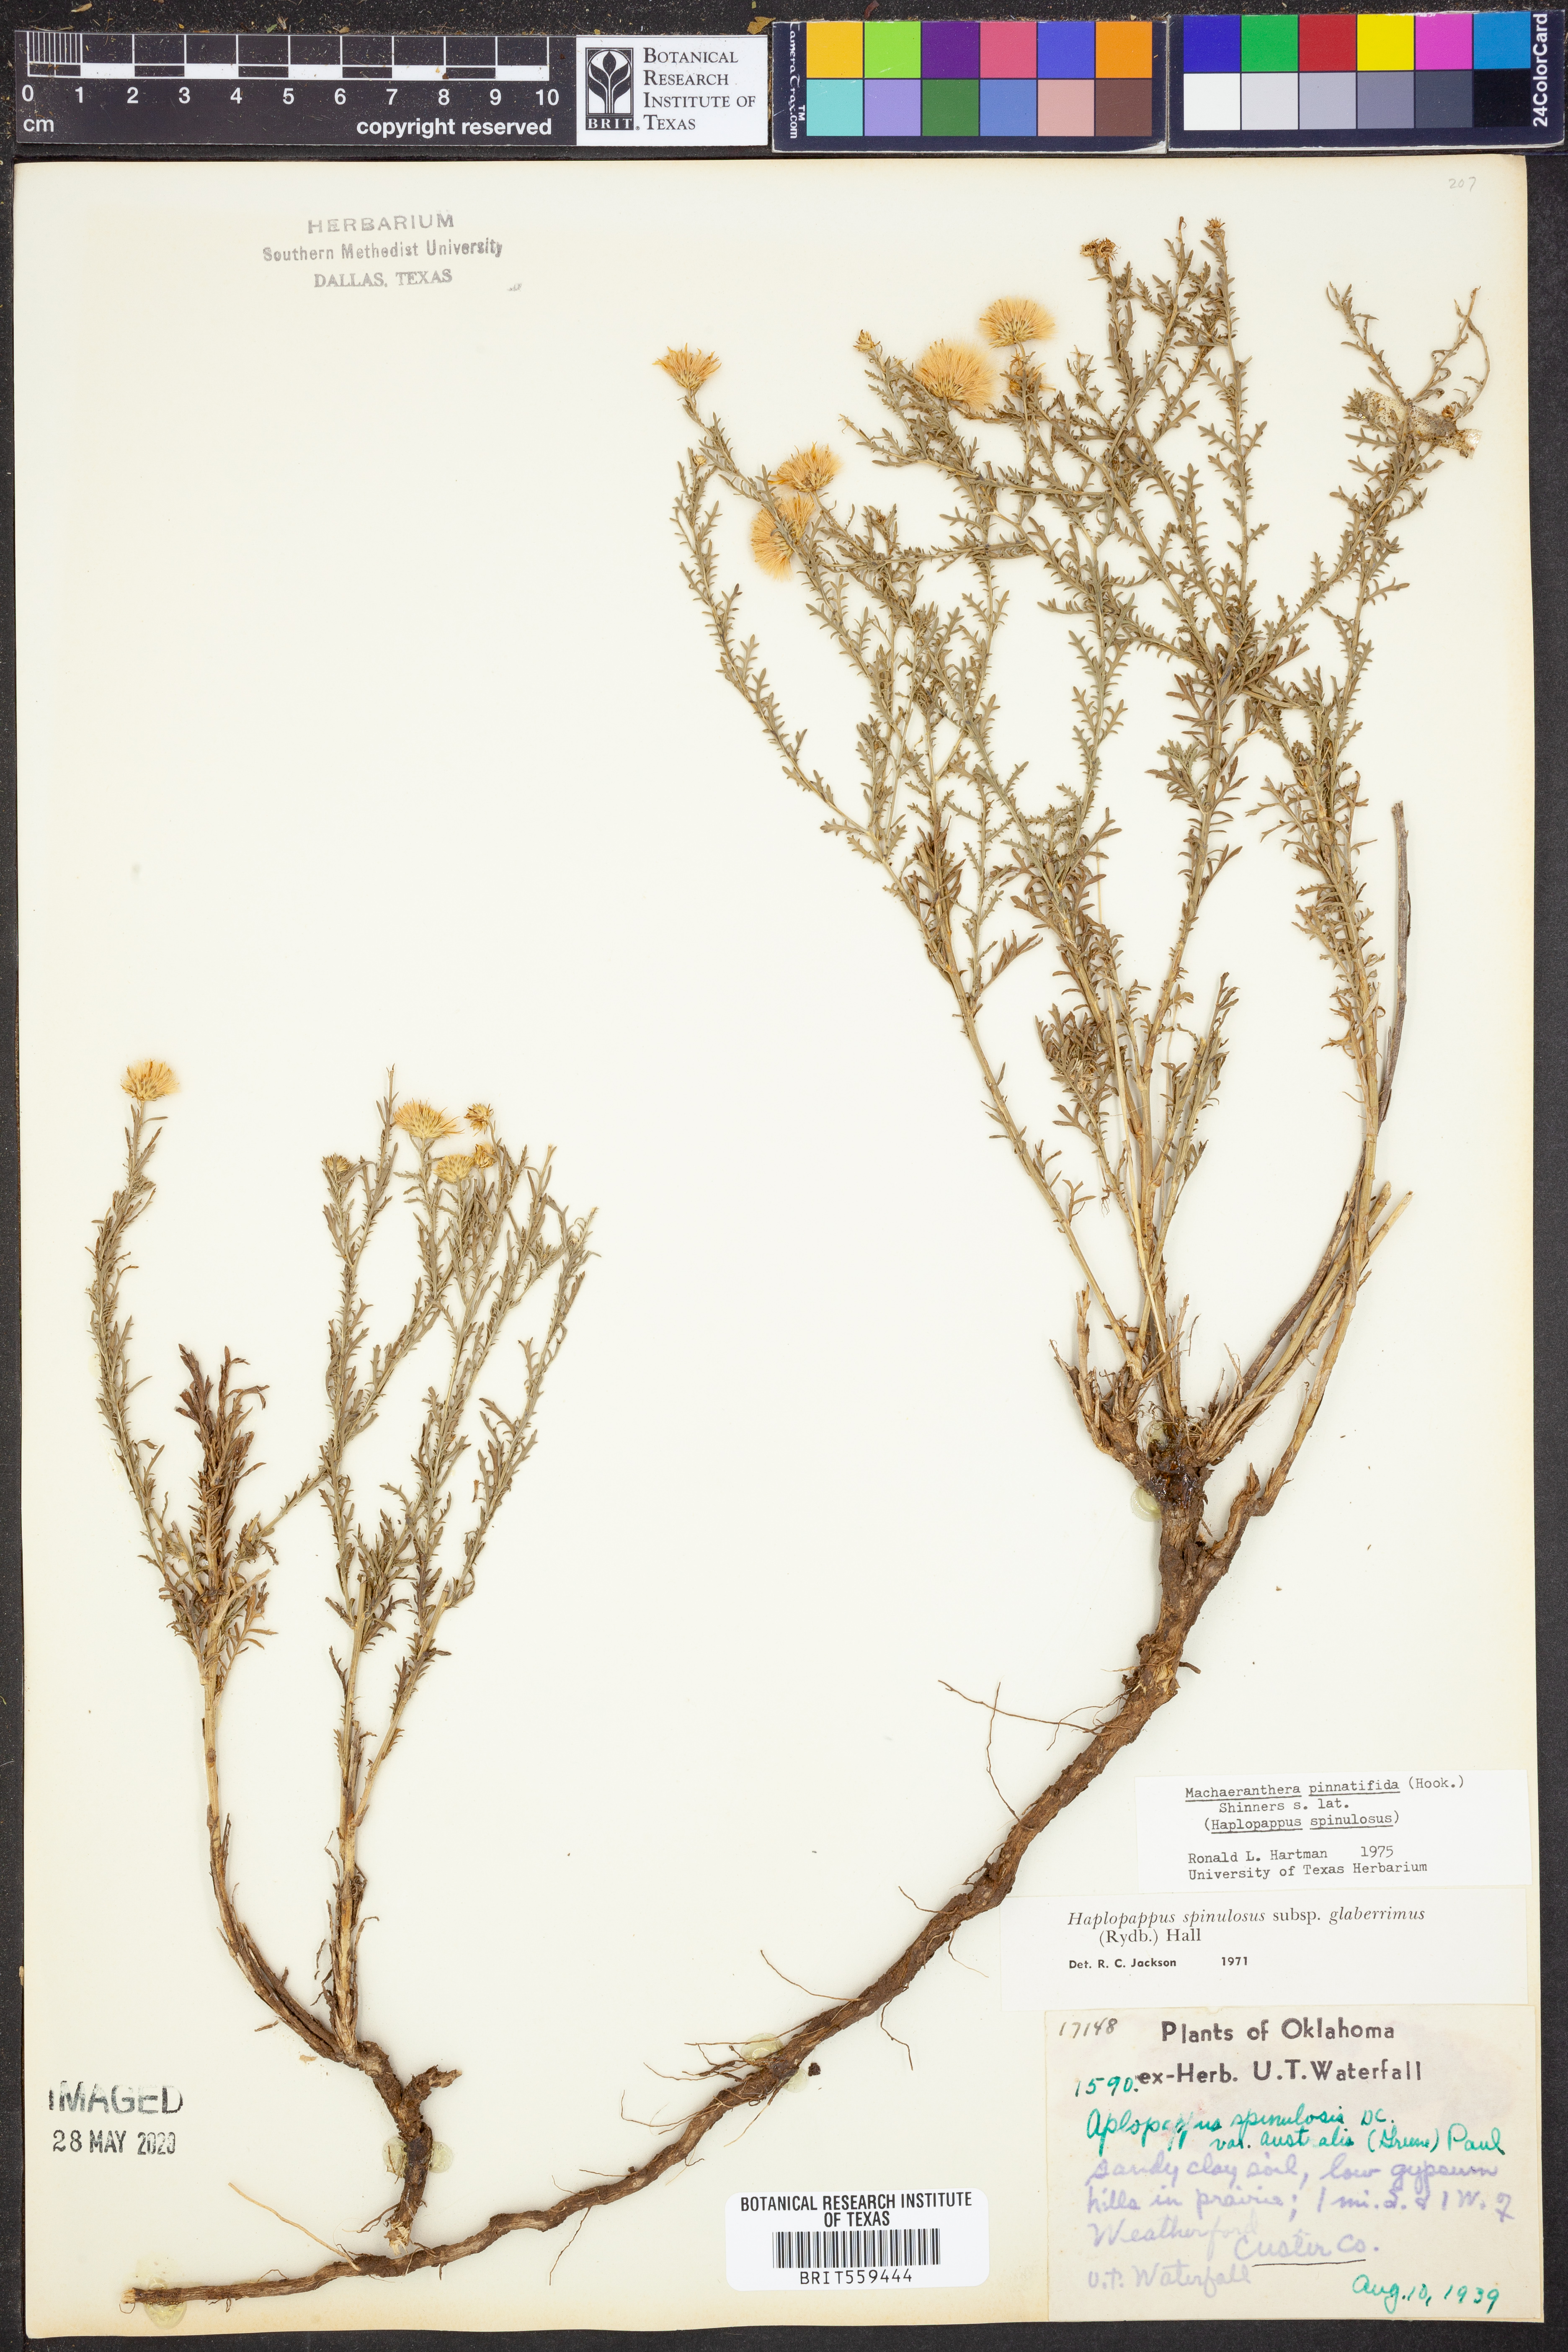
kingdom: Plantae
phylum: Tracheophyta
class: Magnoliopsida
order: Asterales
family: Asteraceae
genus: Xanthisma
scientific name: Xanthisma spinulosum
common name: Spiny goldenweed
